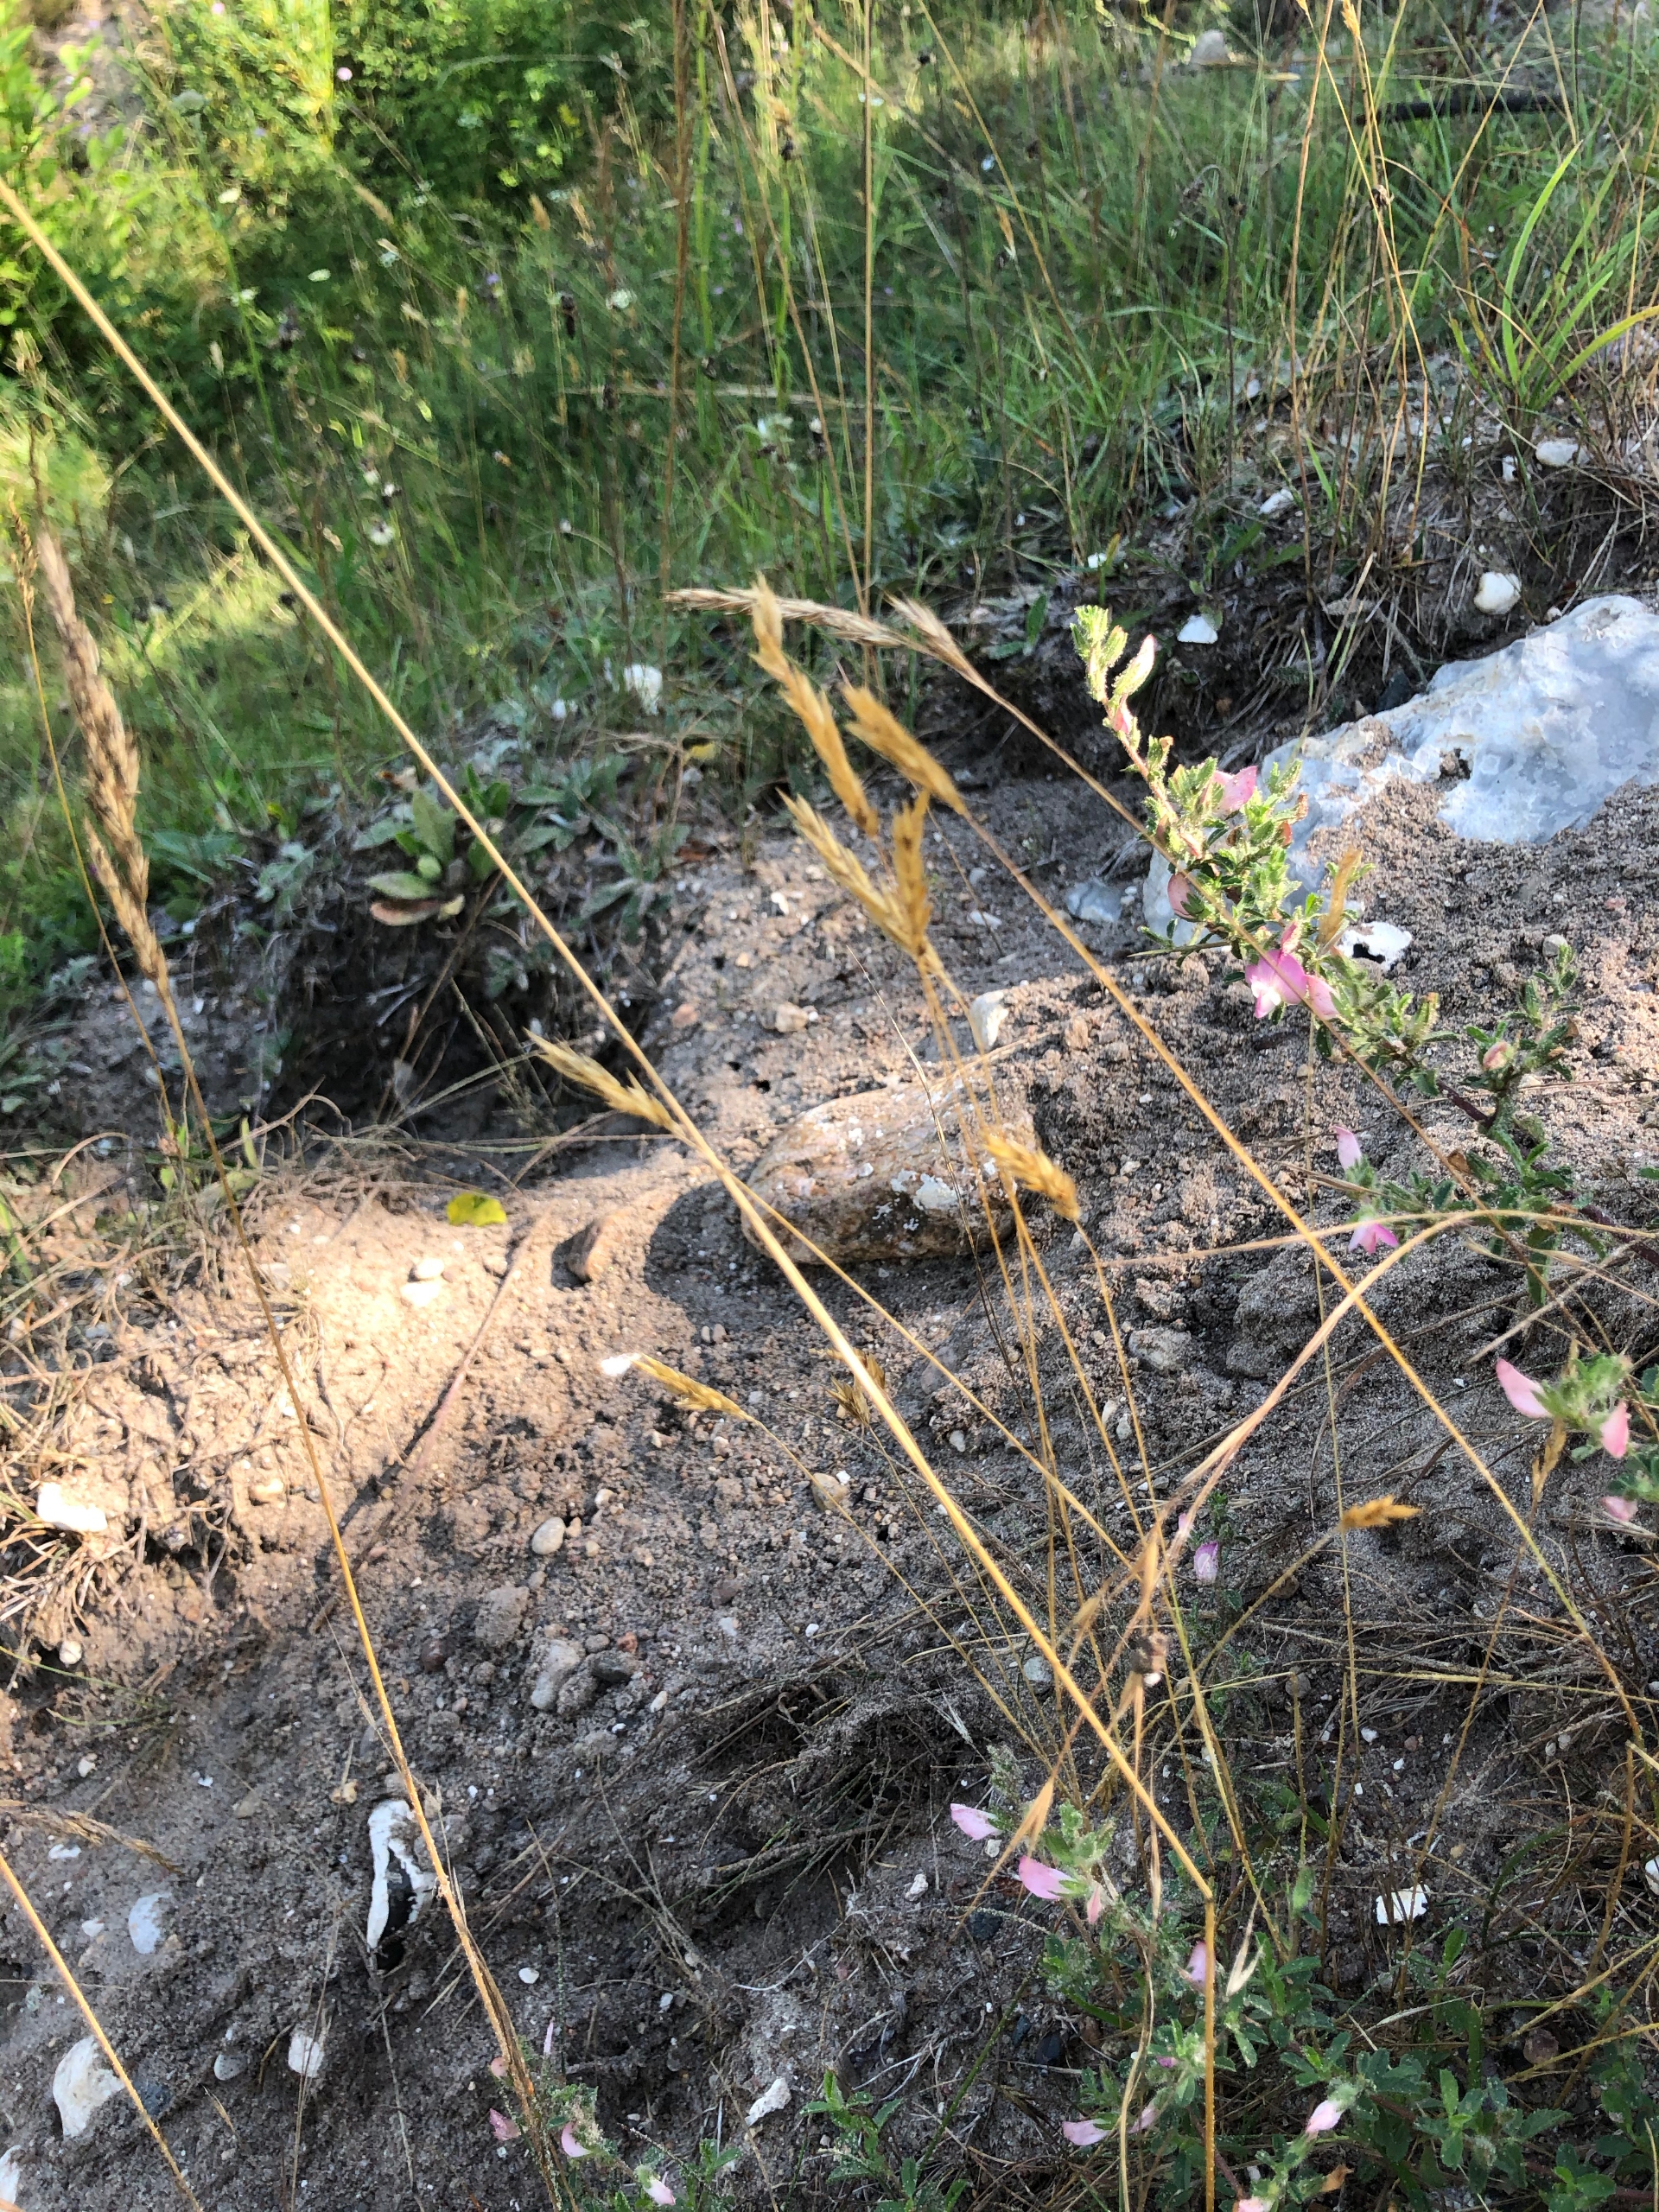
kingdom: Plantae
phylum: Tracheophyta
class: Liliopsida
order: Poales
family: Poaceae
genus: Anthoxanthum
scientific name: Anthoxanthum odoratum
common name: Vellugtende gulaks
